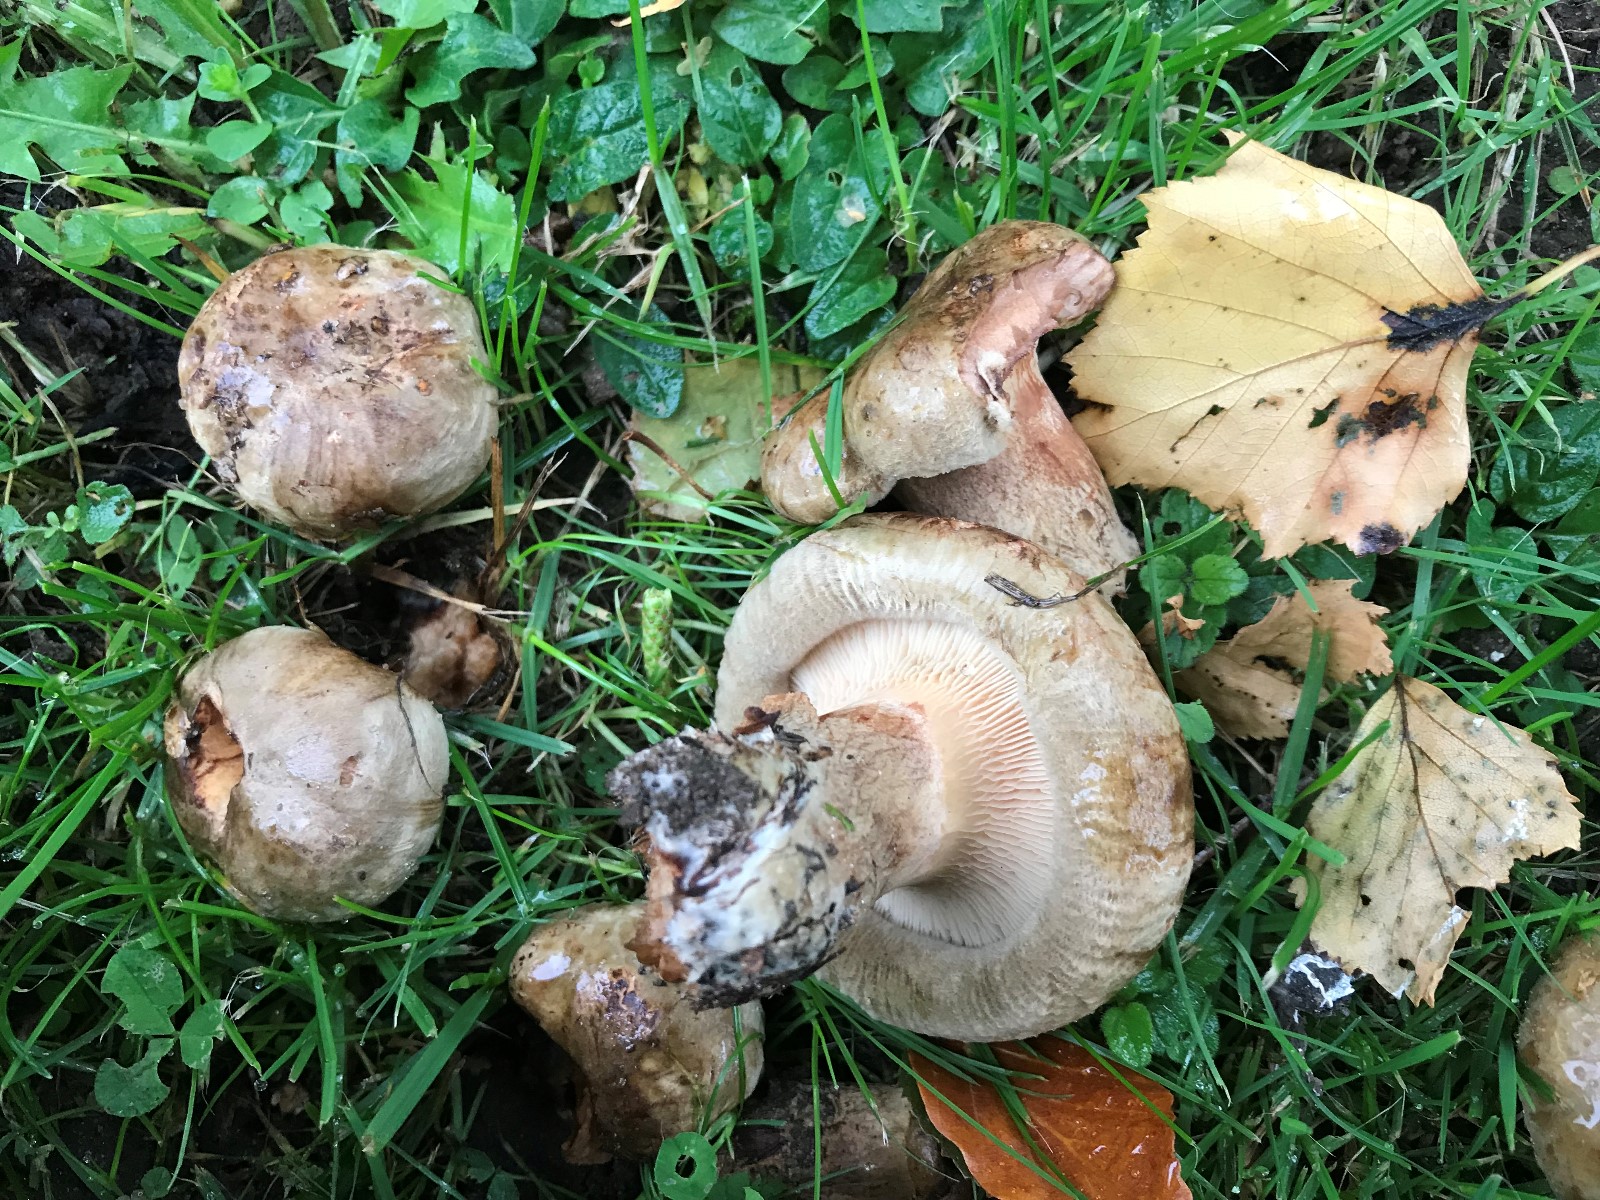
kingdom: Fungi
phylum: Basidiomycota
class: Agaricomycetes
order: Boletales
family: Paxillaceae
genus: Paxillus
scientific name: Paxillus involutus
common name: almindelig netbladhat
